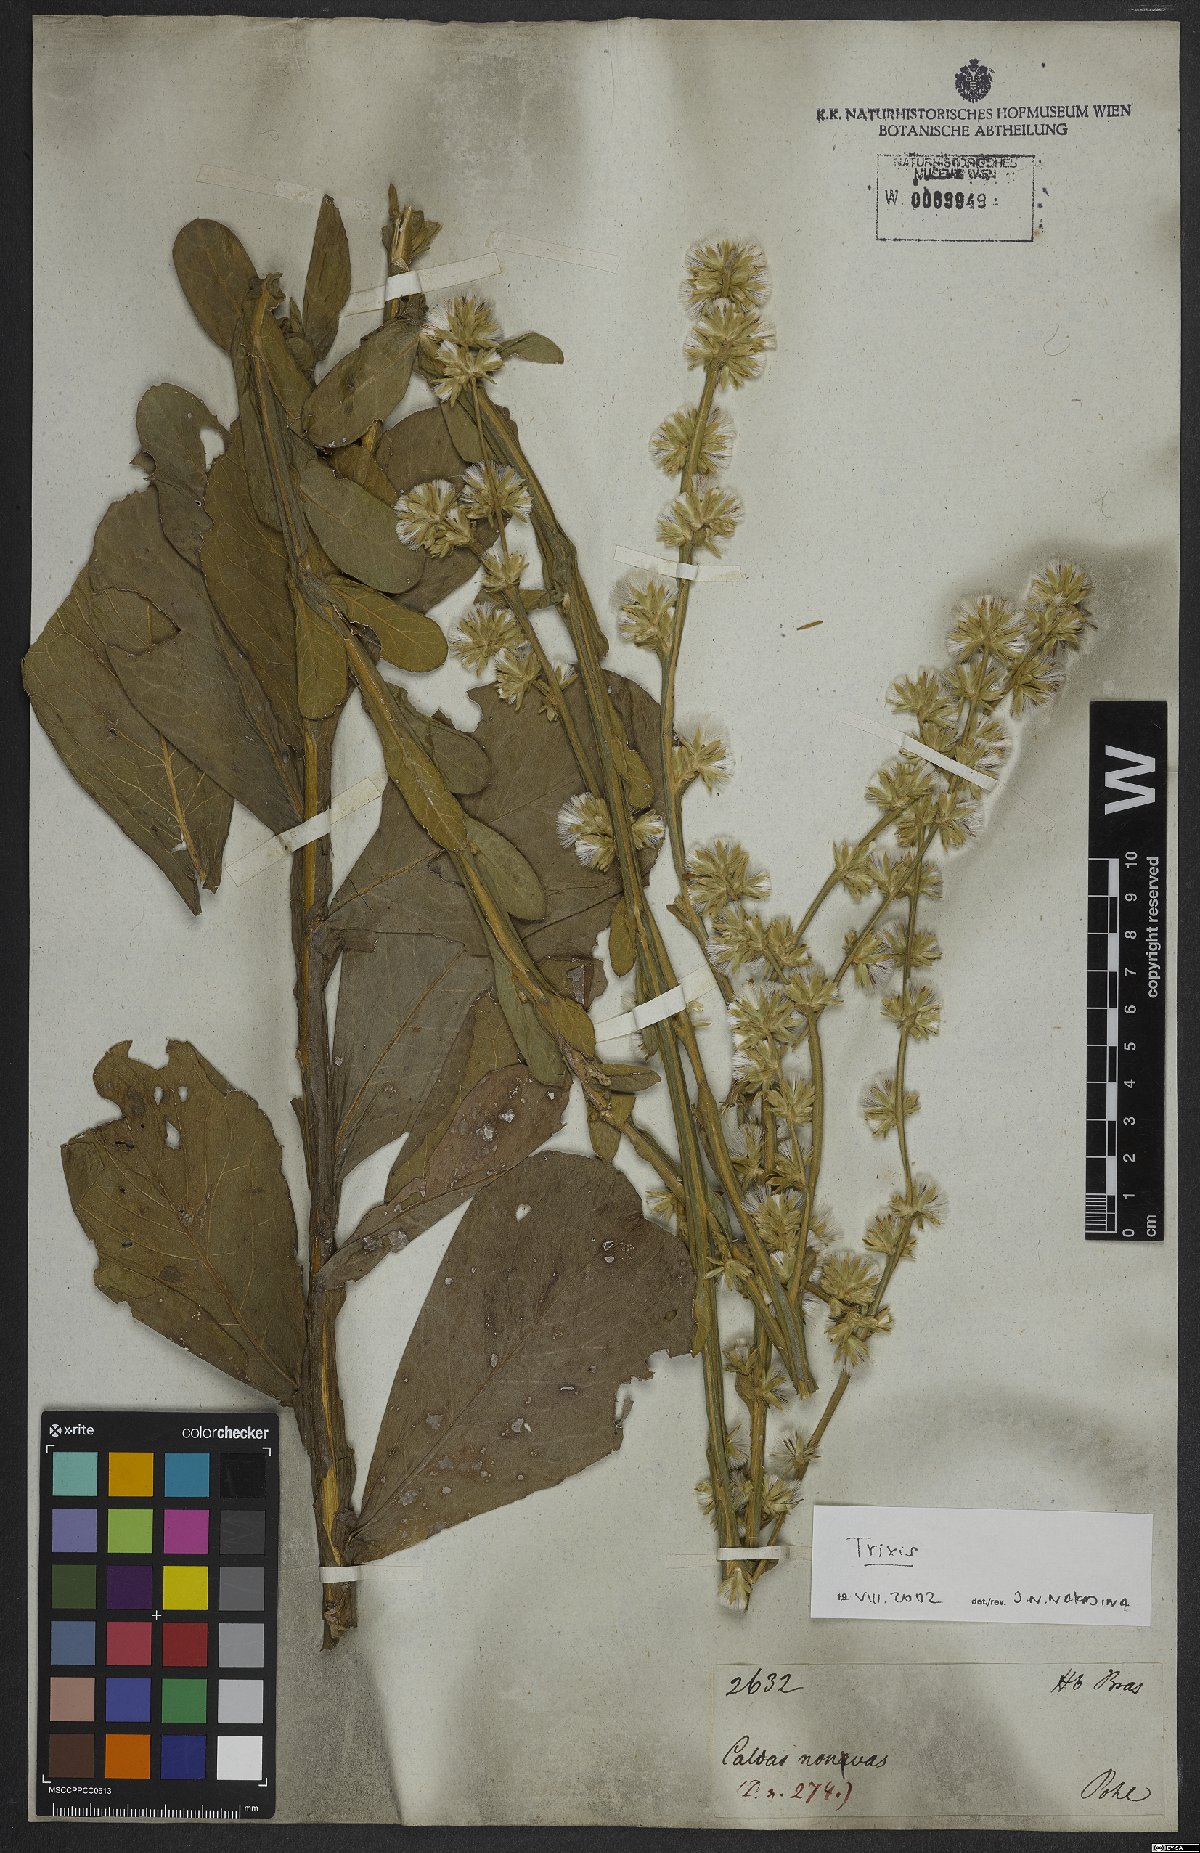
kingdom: Plantae
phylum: Tracheophyta
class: Magnoliopsida
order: Asterales
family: Asteraceae
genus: Trixis
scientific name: Trixis
